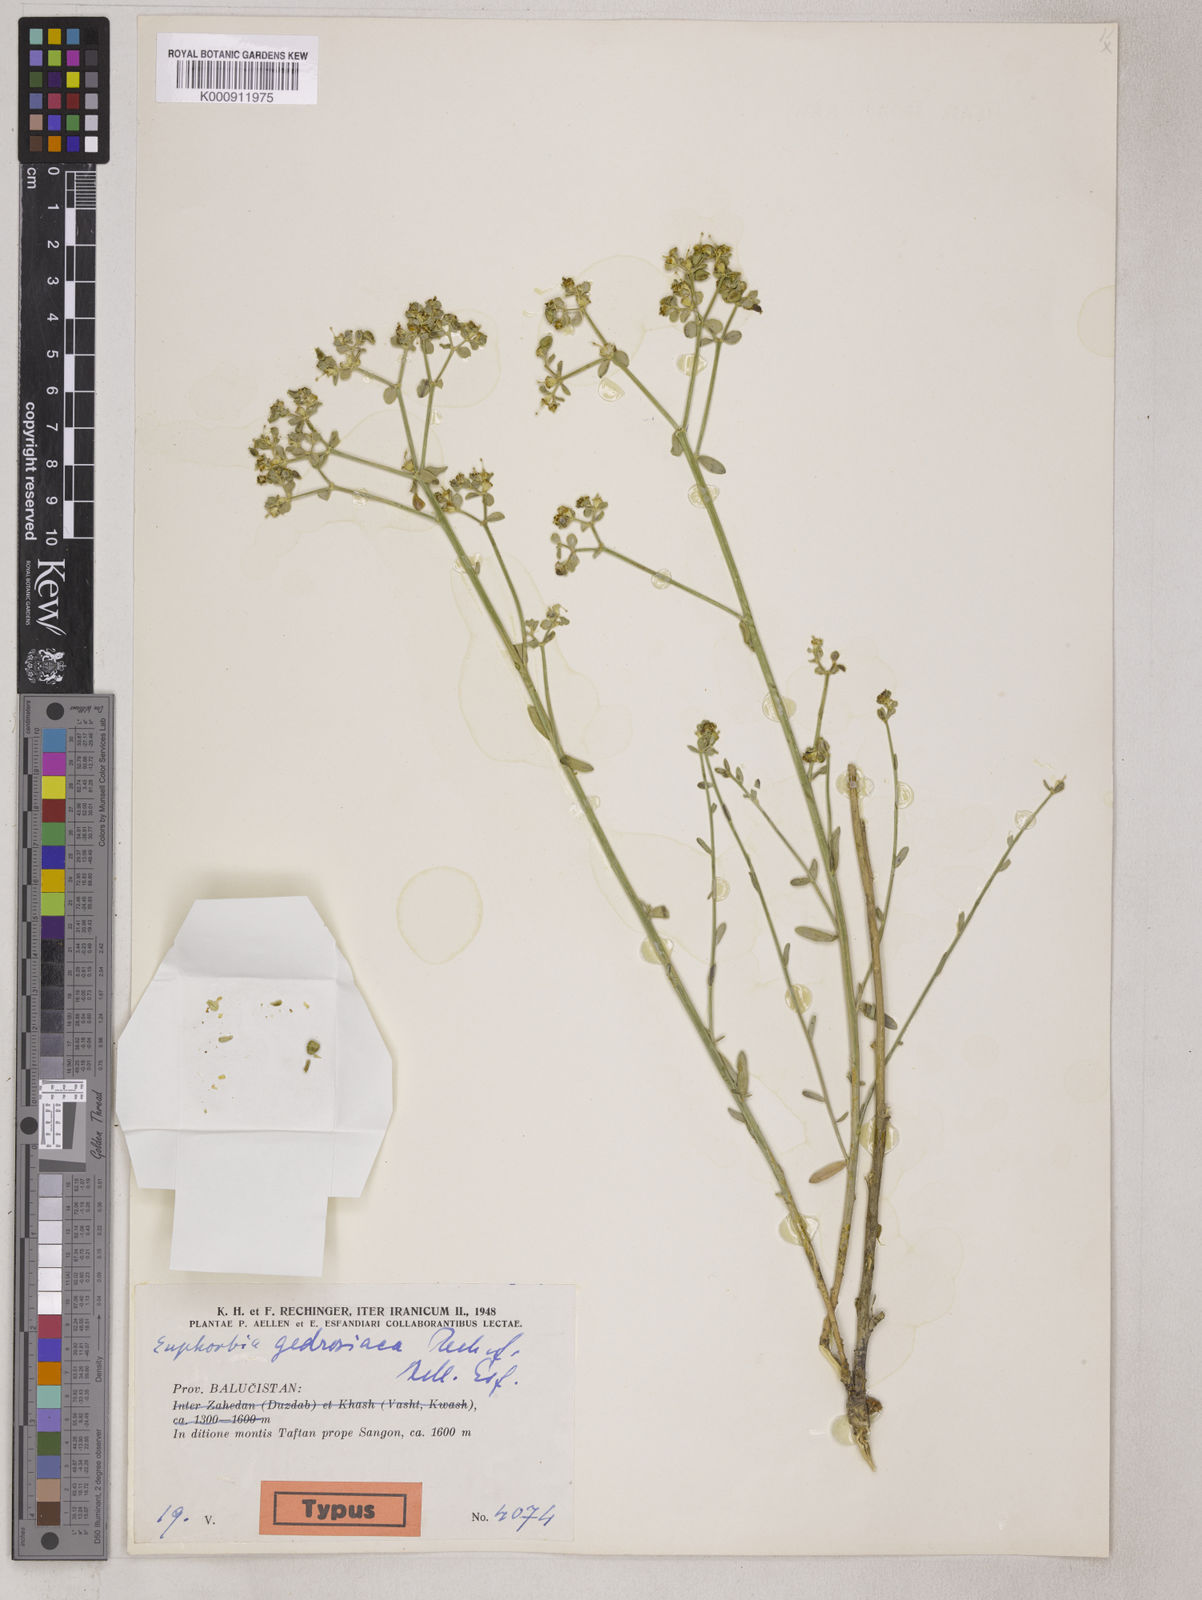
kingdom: Plantae
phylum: Tracheophyta
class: Magnoliopsida
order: Malpighiales
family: Euphorbiaceae
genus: Euphorbia
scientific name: Euphorbia gedrosiaca
